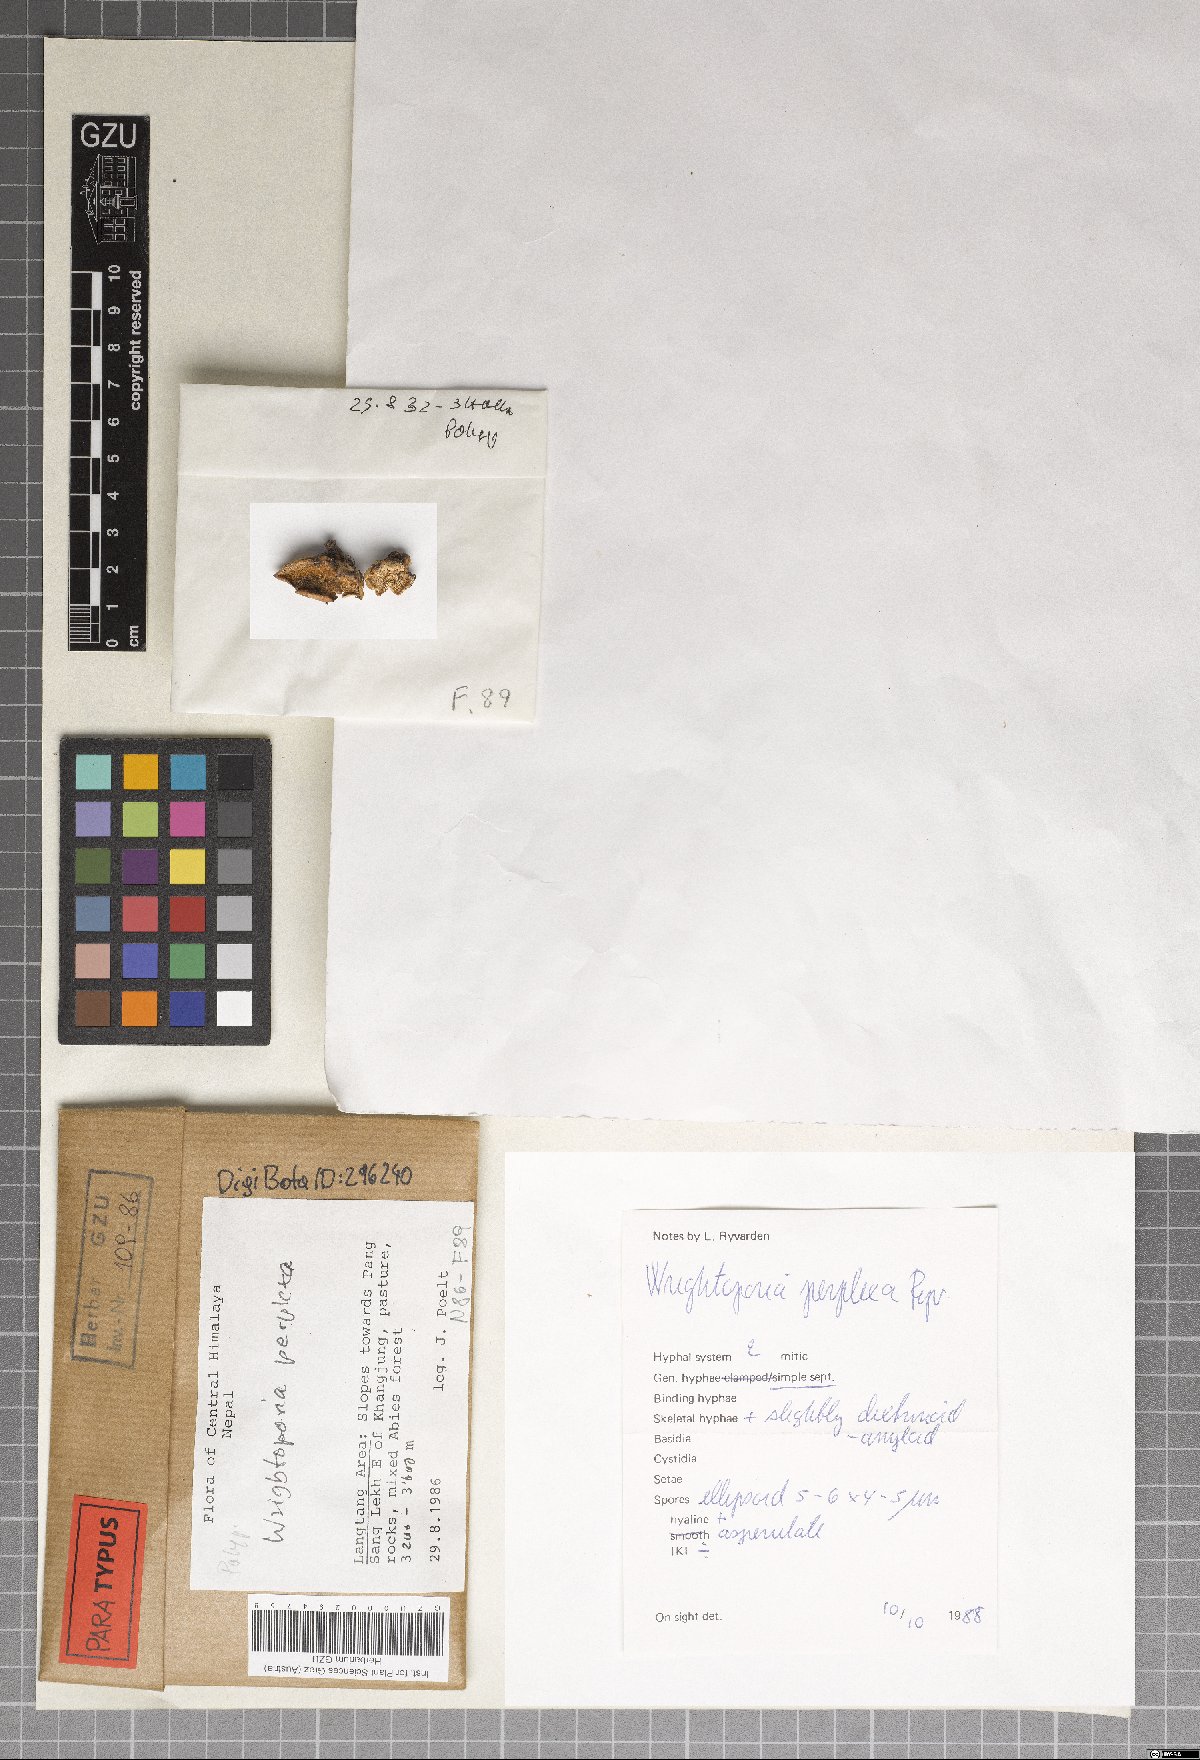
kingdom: Fungi
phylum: Basidiomycota
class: Agaricomycetes
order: Russulales
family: Bondarzewiaceae
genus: Wrightoporia
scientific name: Wrightoporia perplexa
